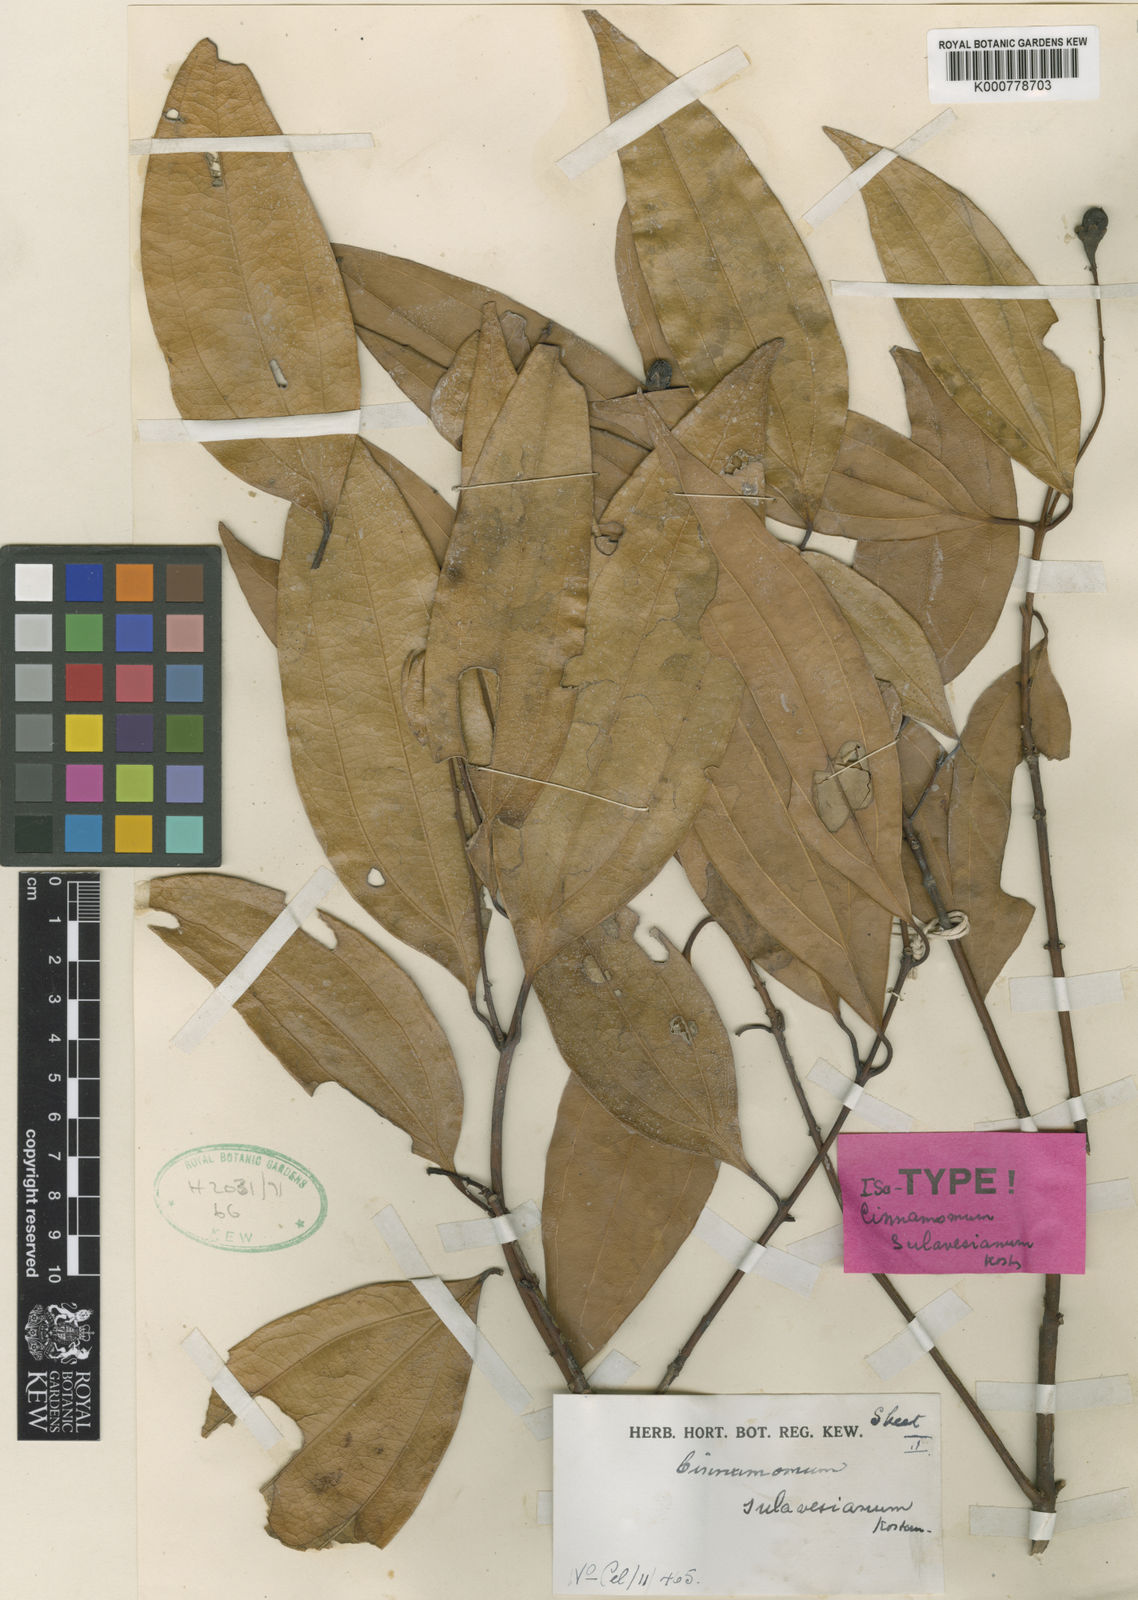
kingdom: Plantae
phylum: Tracheophyta
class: Magnoliopsida
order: Laurales
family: Lauraceae
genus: Cinnamomum
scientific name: Cinnamomum sulavesianum
